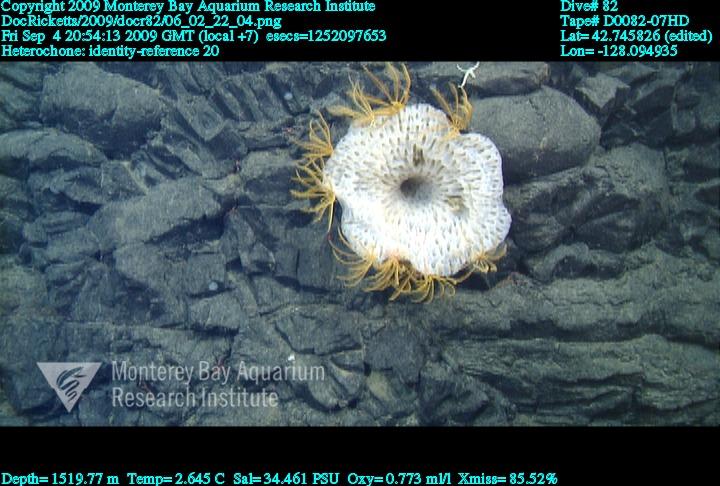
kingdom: Animalia
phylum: Porifera
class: Hexactinellida
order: Sceptrulophora
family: Aphrocallistidae
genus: Heterochone
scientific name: Heterochone
